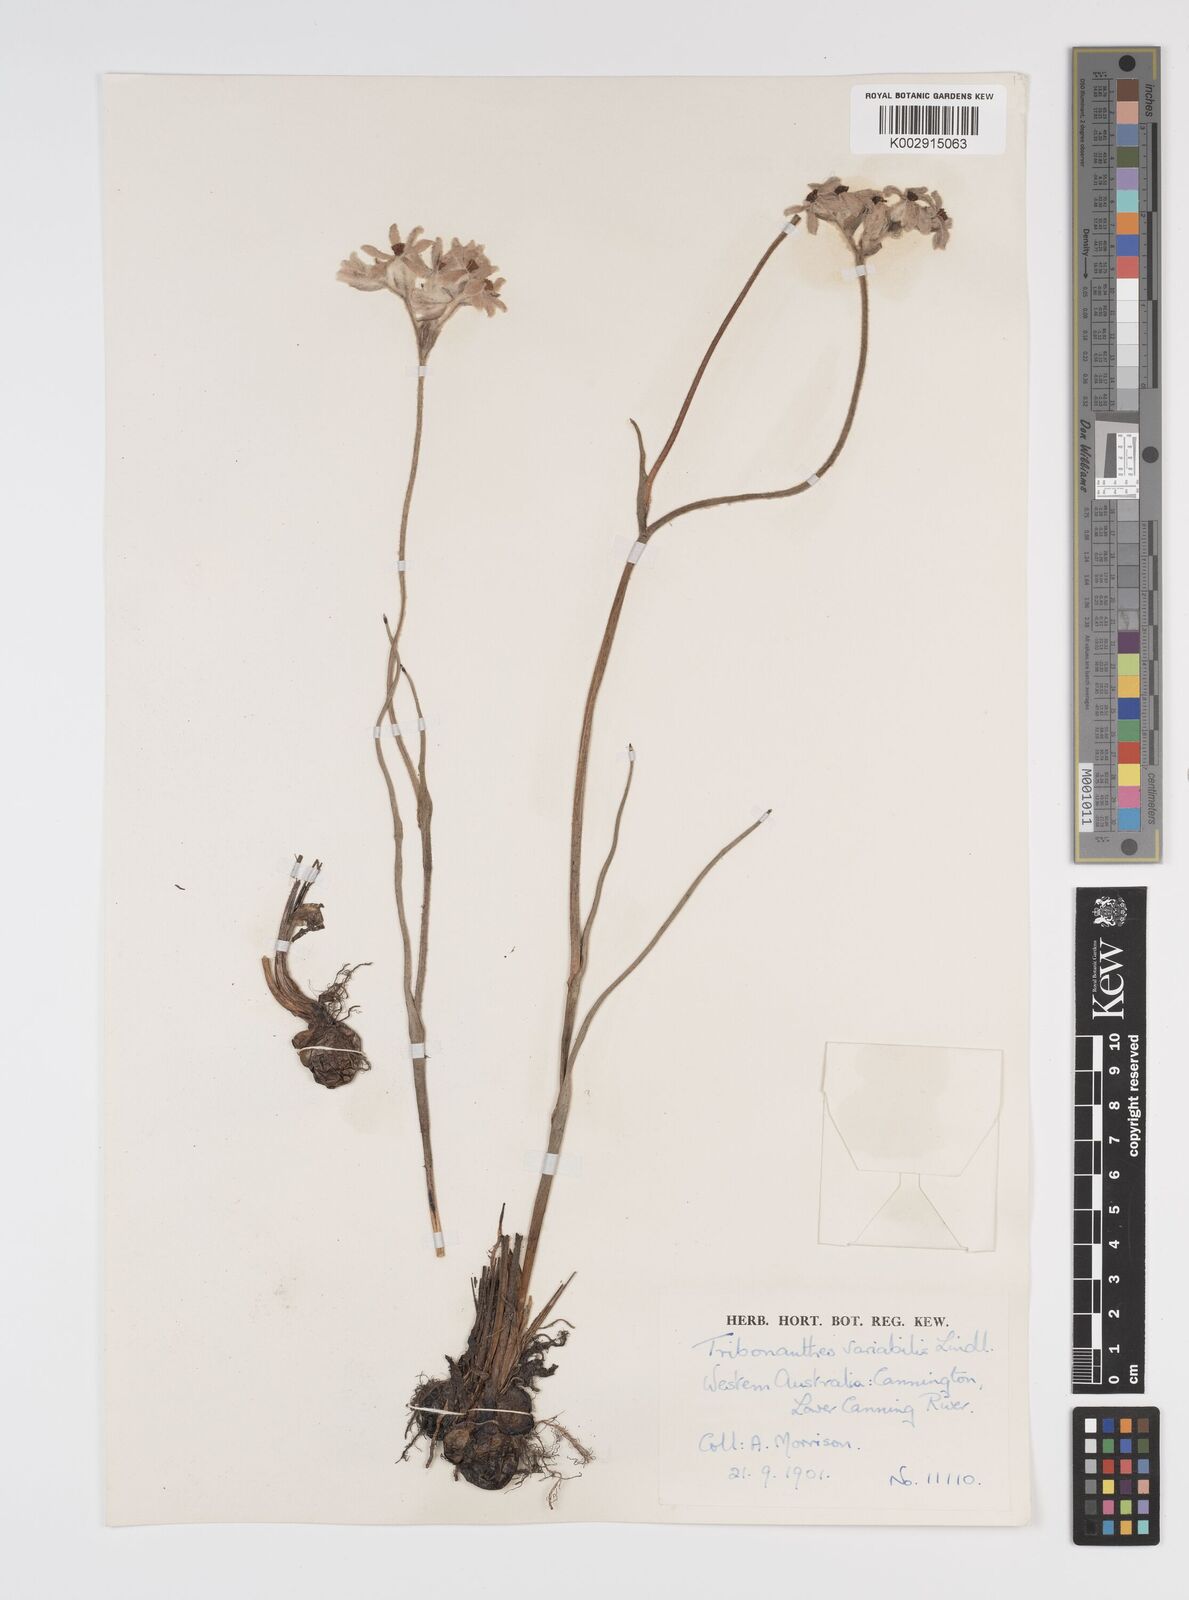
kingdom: Plantae
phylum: Tracheophyta
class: Liliopsida
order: Commelinales
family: Haemodoraceae
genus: Tribonanthes
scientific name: Tribonanthes australis
